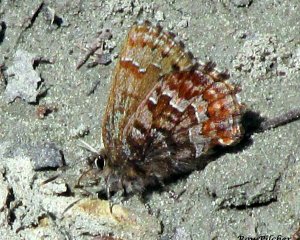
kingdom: Animalia
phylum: Arthropoda
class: Insecta
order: Lepidoptera
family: Lycaenidae
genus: Incisalia
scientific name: Incisalia niphon
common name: Eastern Pine Elfin
